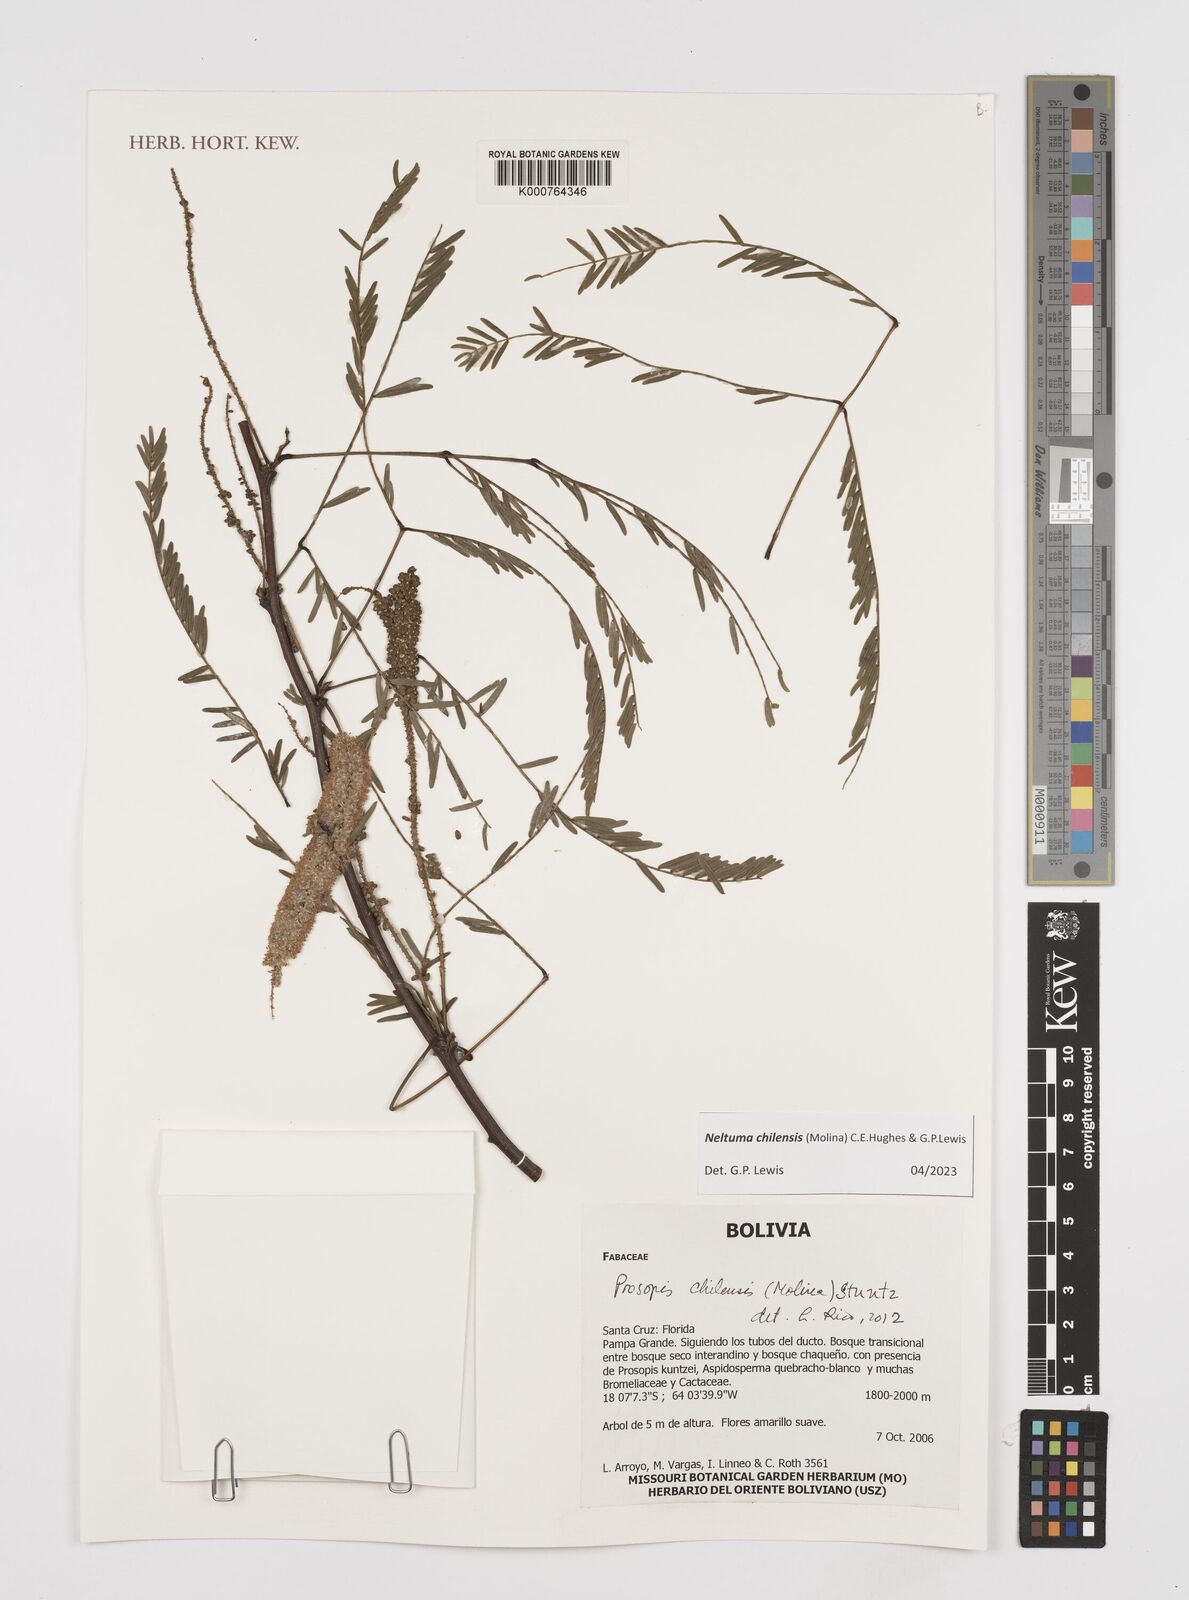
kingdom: Plantae
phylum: Tracheophyta
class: Magnoliopsida
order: Fabales
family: Fabaceae
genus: Prosopis
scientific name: Prosopis chilensis
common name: Chilean algarrobo
